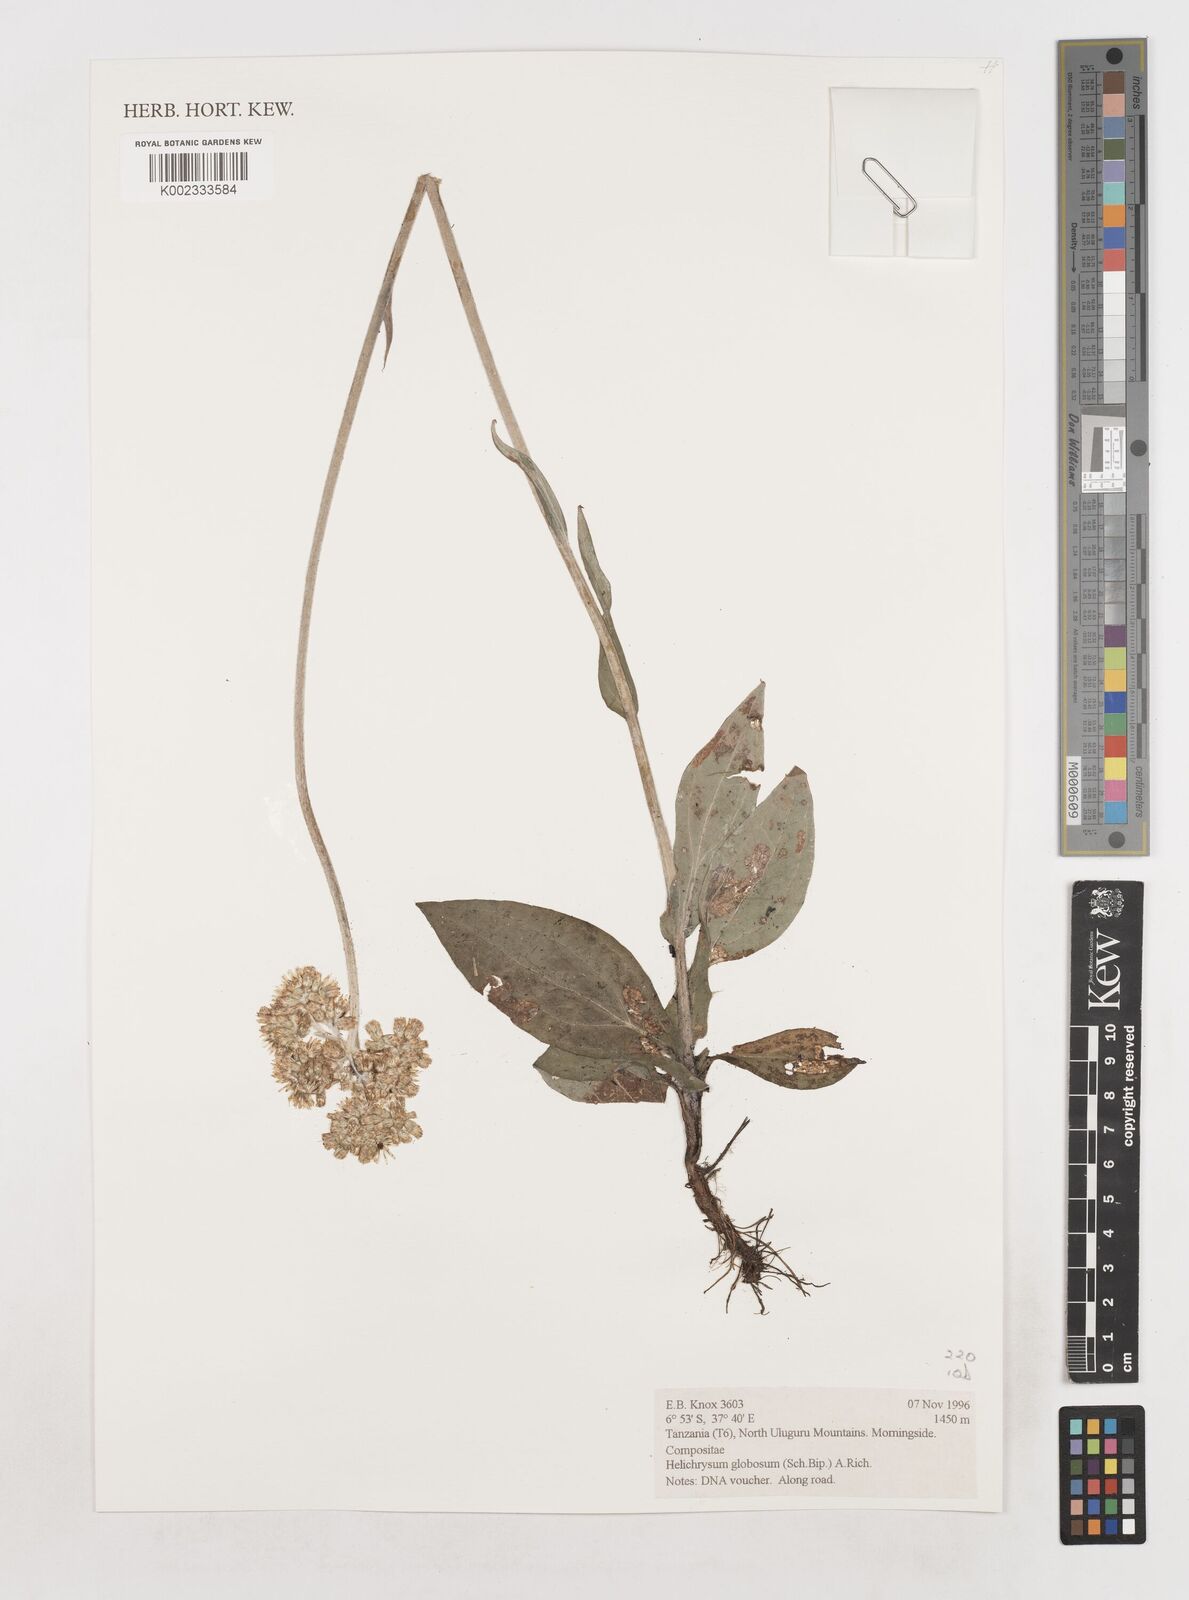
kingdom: Plantae
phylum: Tracheophyta
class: Magnoliopsida
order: Asterales
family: Asteraceae
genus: Helichrysum
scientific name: Helichrysum globosum
